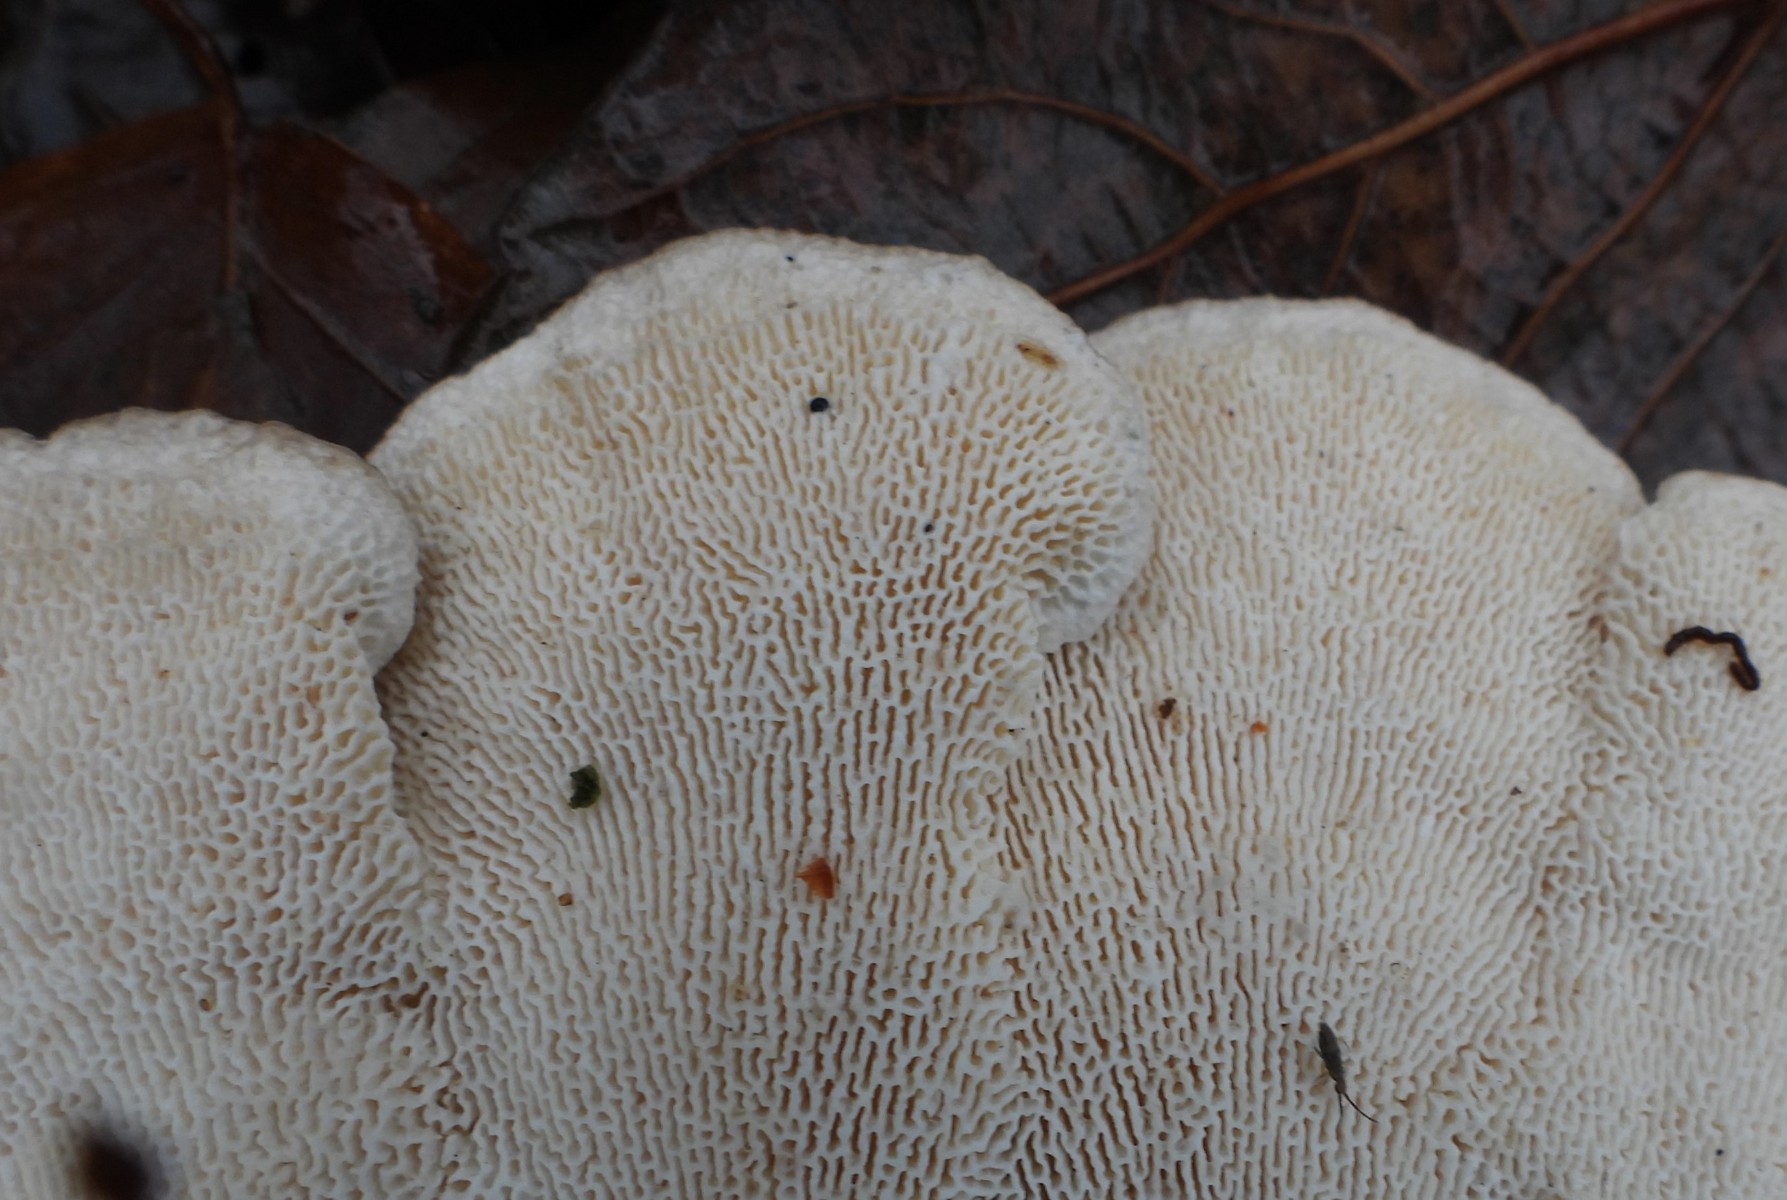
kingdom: Fungi
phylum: Basidiomycota
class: Agaricomycetes
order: Polyporales
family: Polyporaceae
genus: Trametes
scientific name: Trametes gibbosa
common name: puklet læderporesvamp
